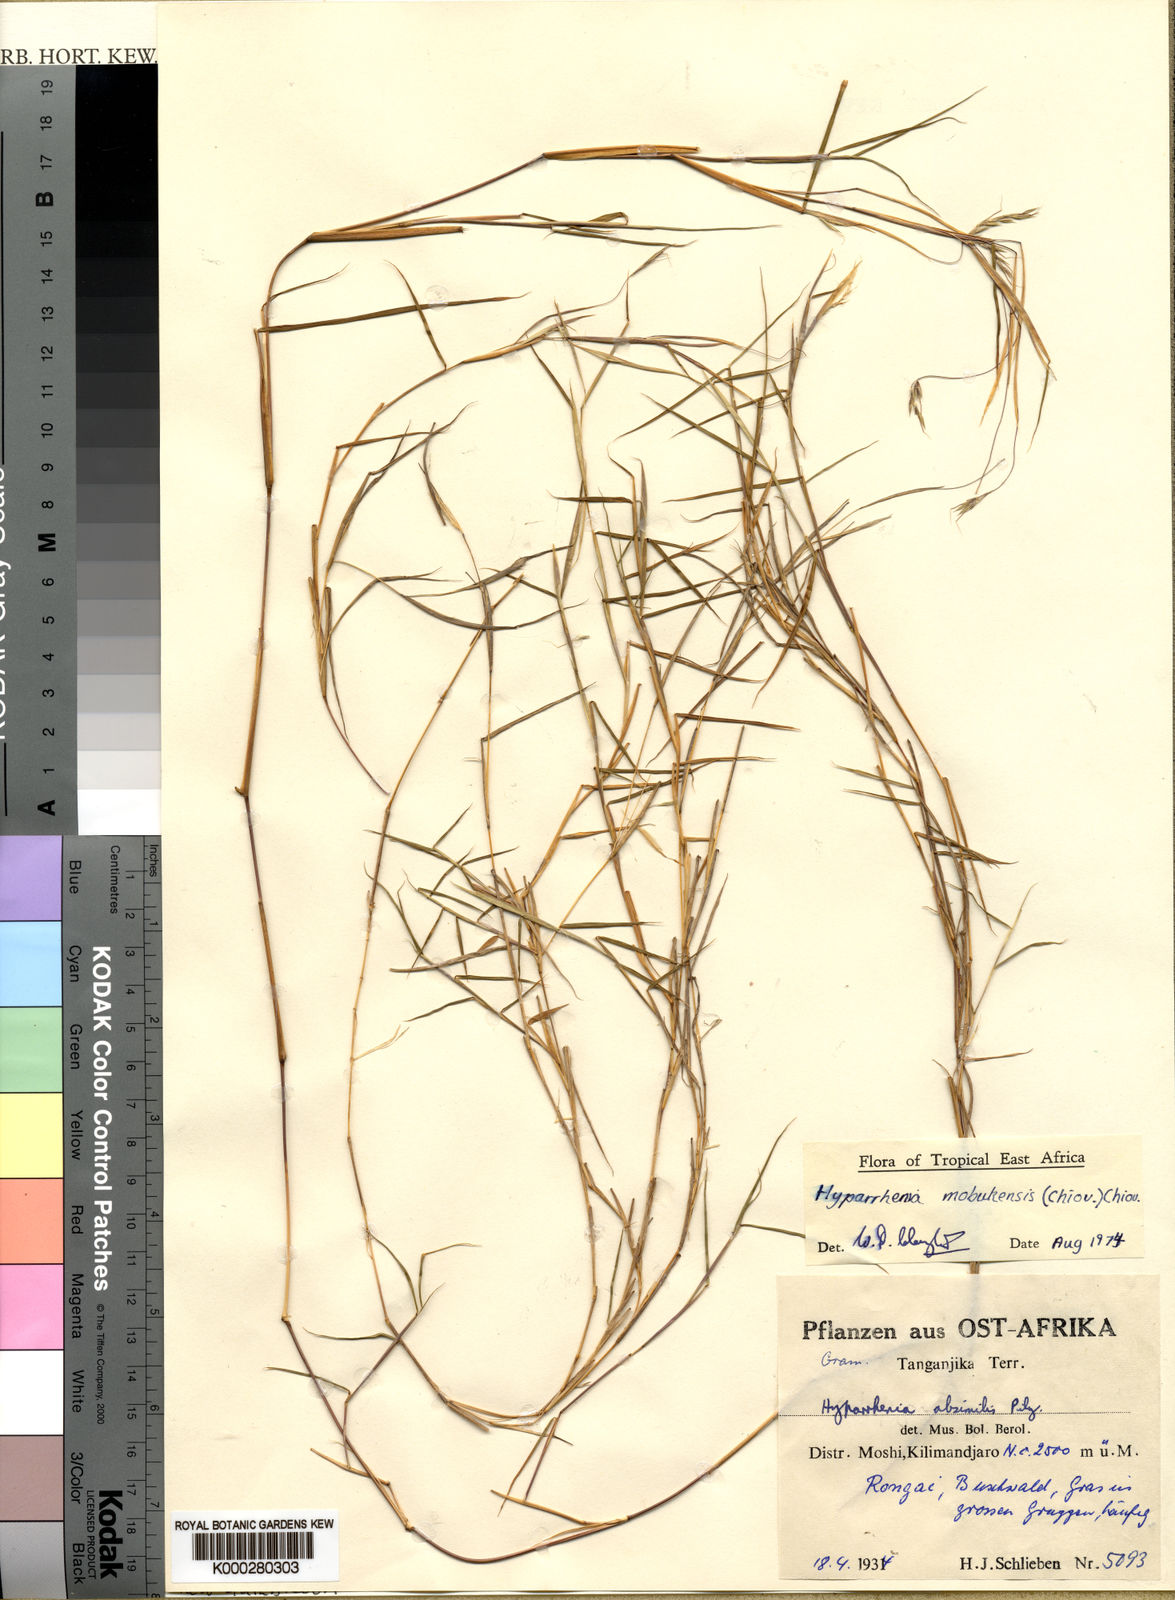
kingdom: Plantae
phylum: Tracheophyta
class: Liliopsida
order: Poales
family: Poaceae
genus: Hyparrhenia
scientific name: Hyparrhenia mobukensis
